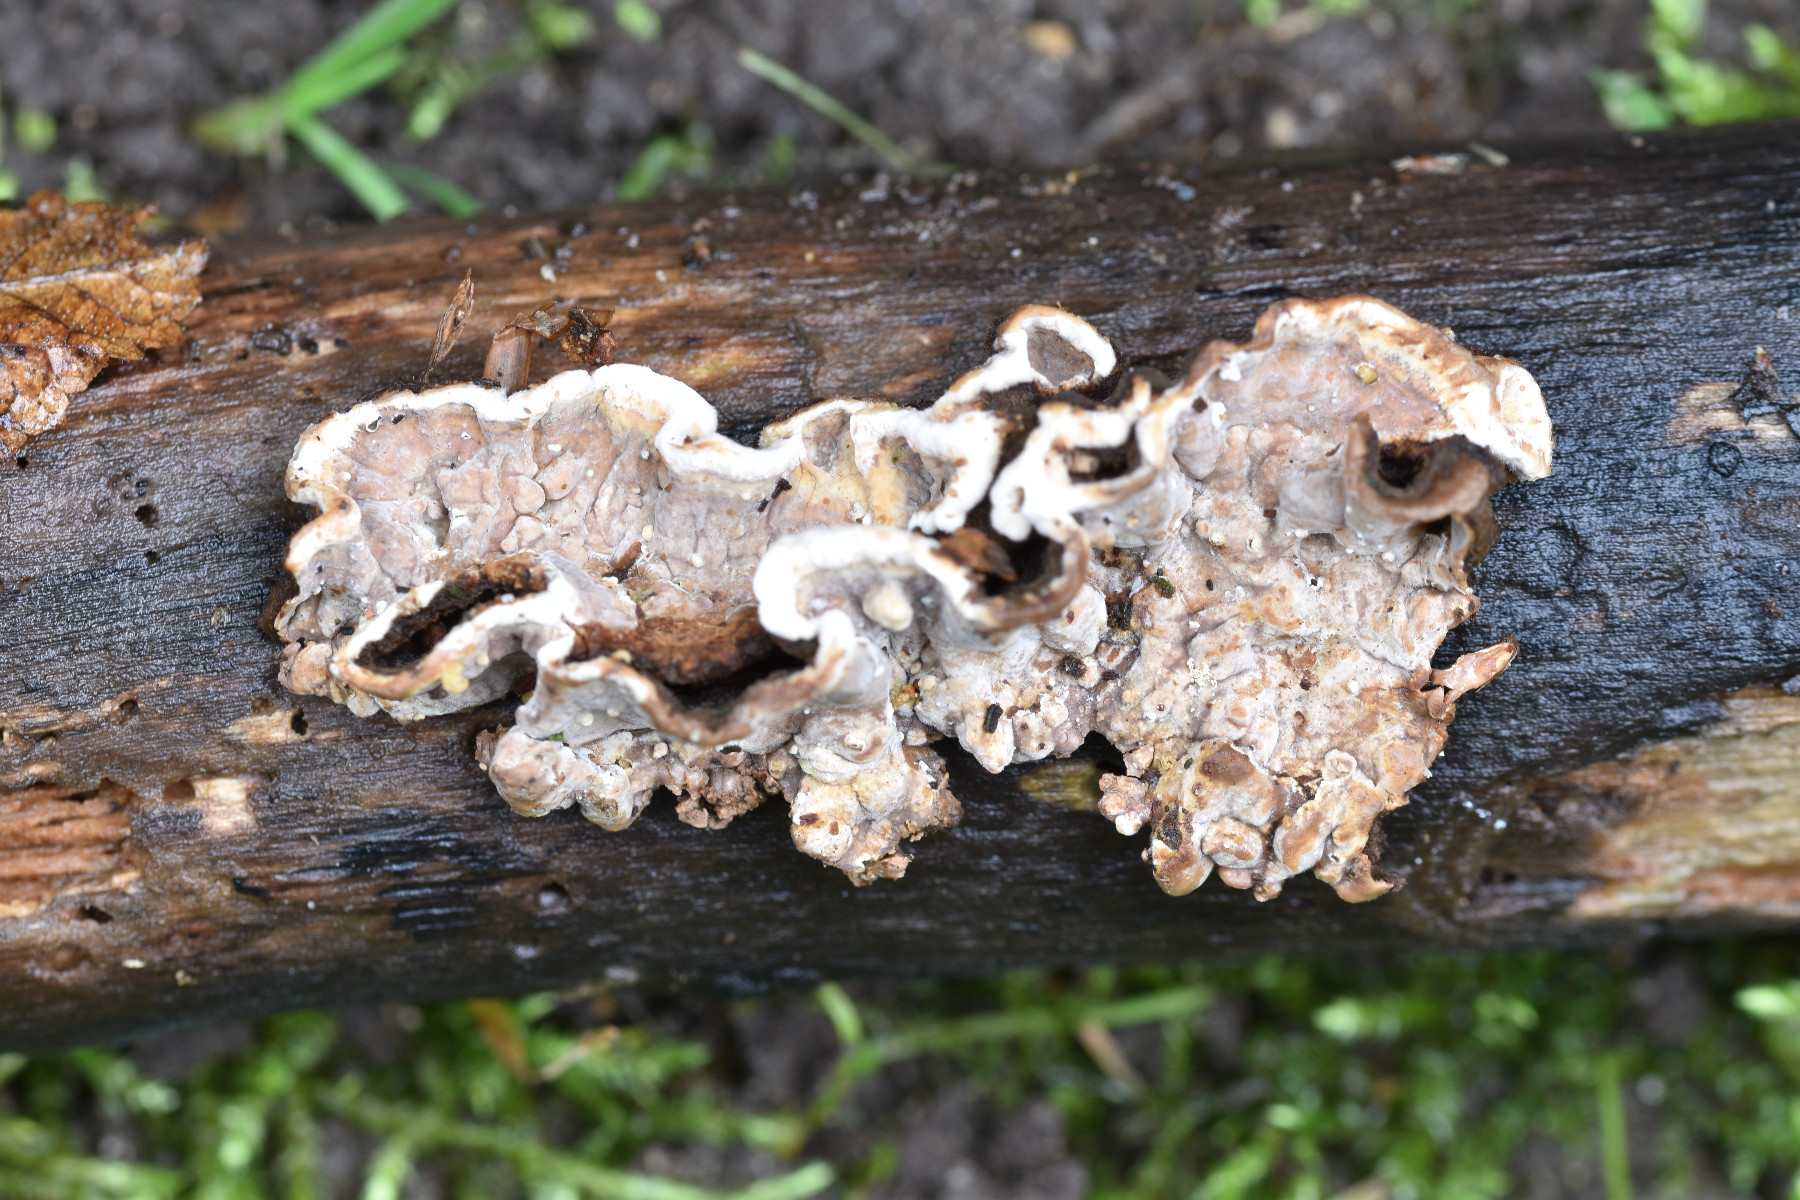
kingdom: Fungi
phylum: Basidiomycota
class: Agaricomycetes
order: Russulales
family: Hericiaceae
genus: Laxitextum
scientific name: Laxitextum bicolor
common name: tvefarvet filtskind
